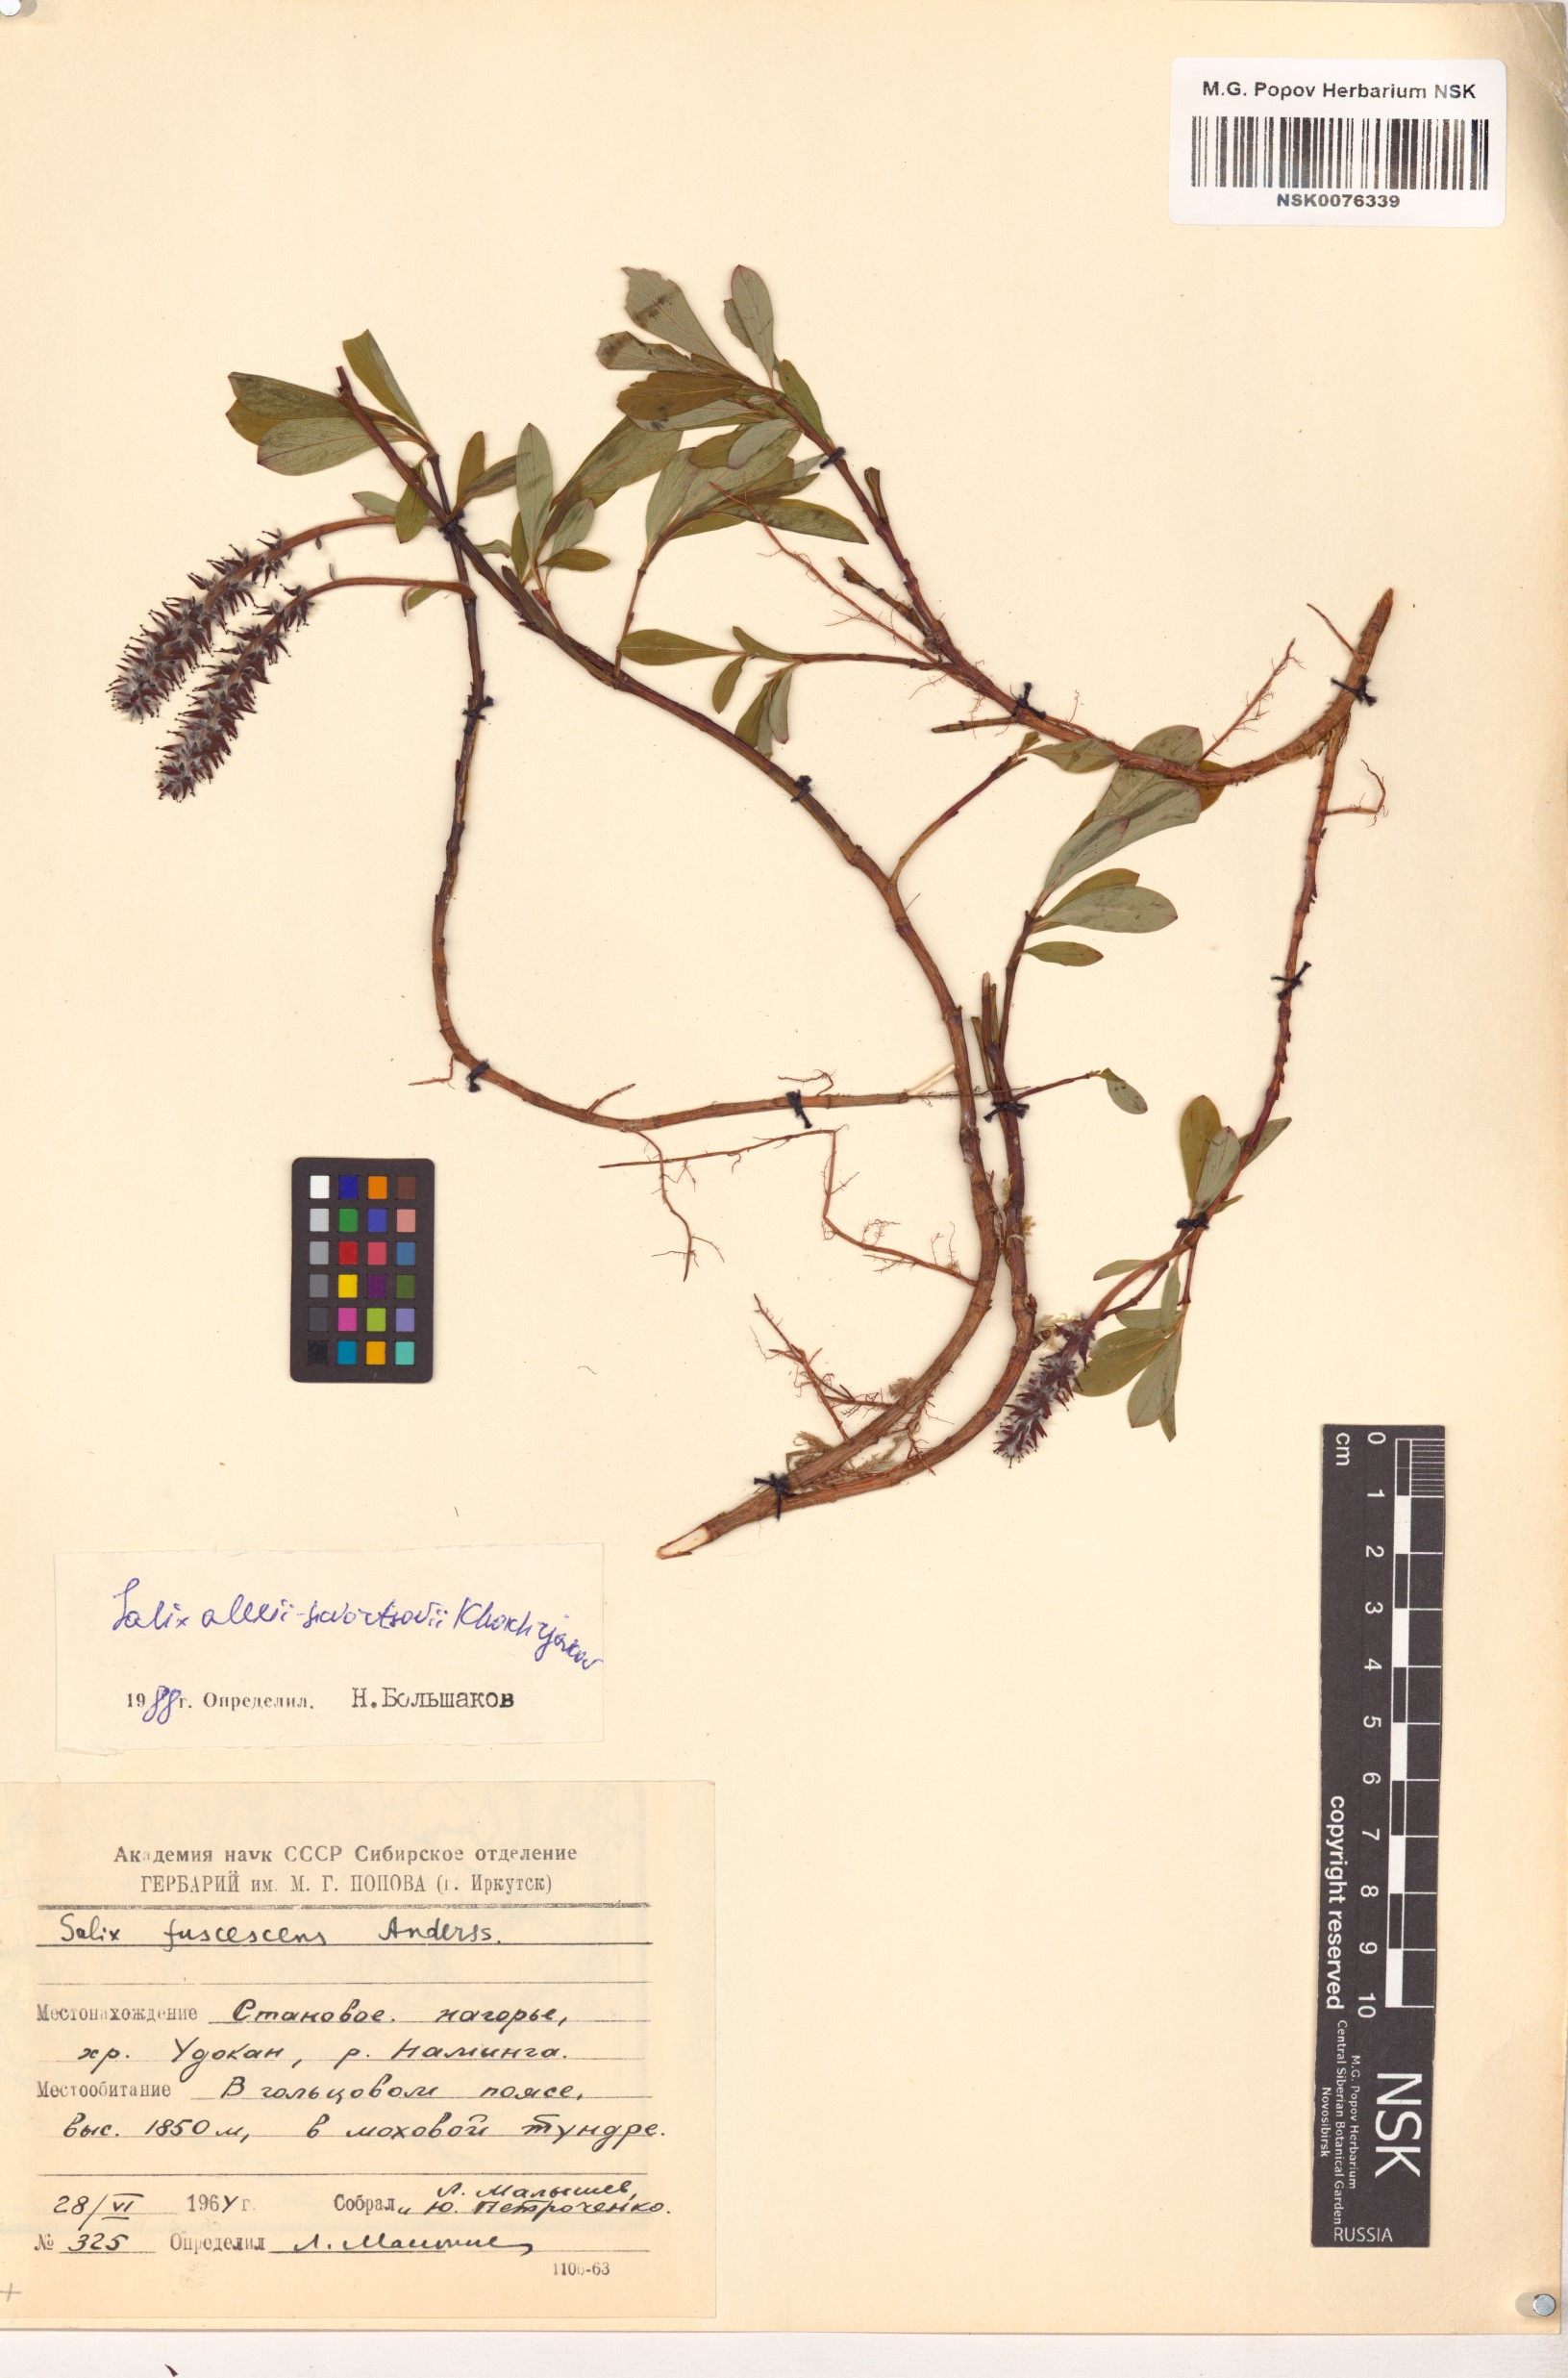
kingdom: Plantae
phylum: Tracheophyta
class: Magnoliopsida
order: Malpighiales
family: Salicaceae
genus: Salix
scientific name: Salix alexii-skvortzovii
